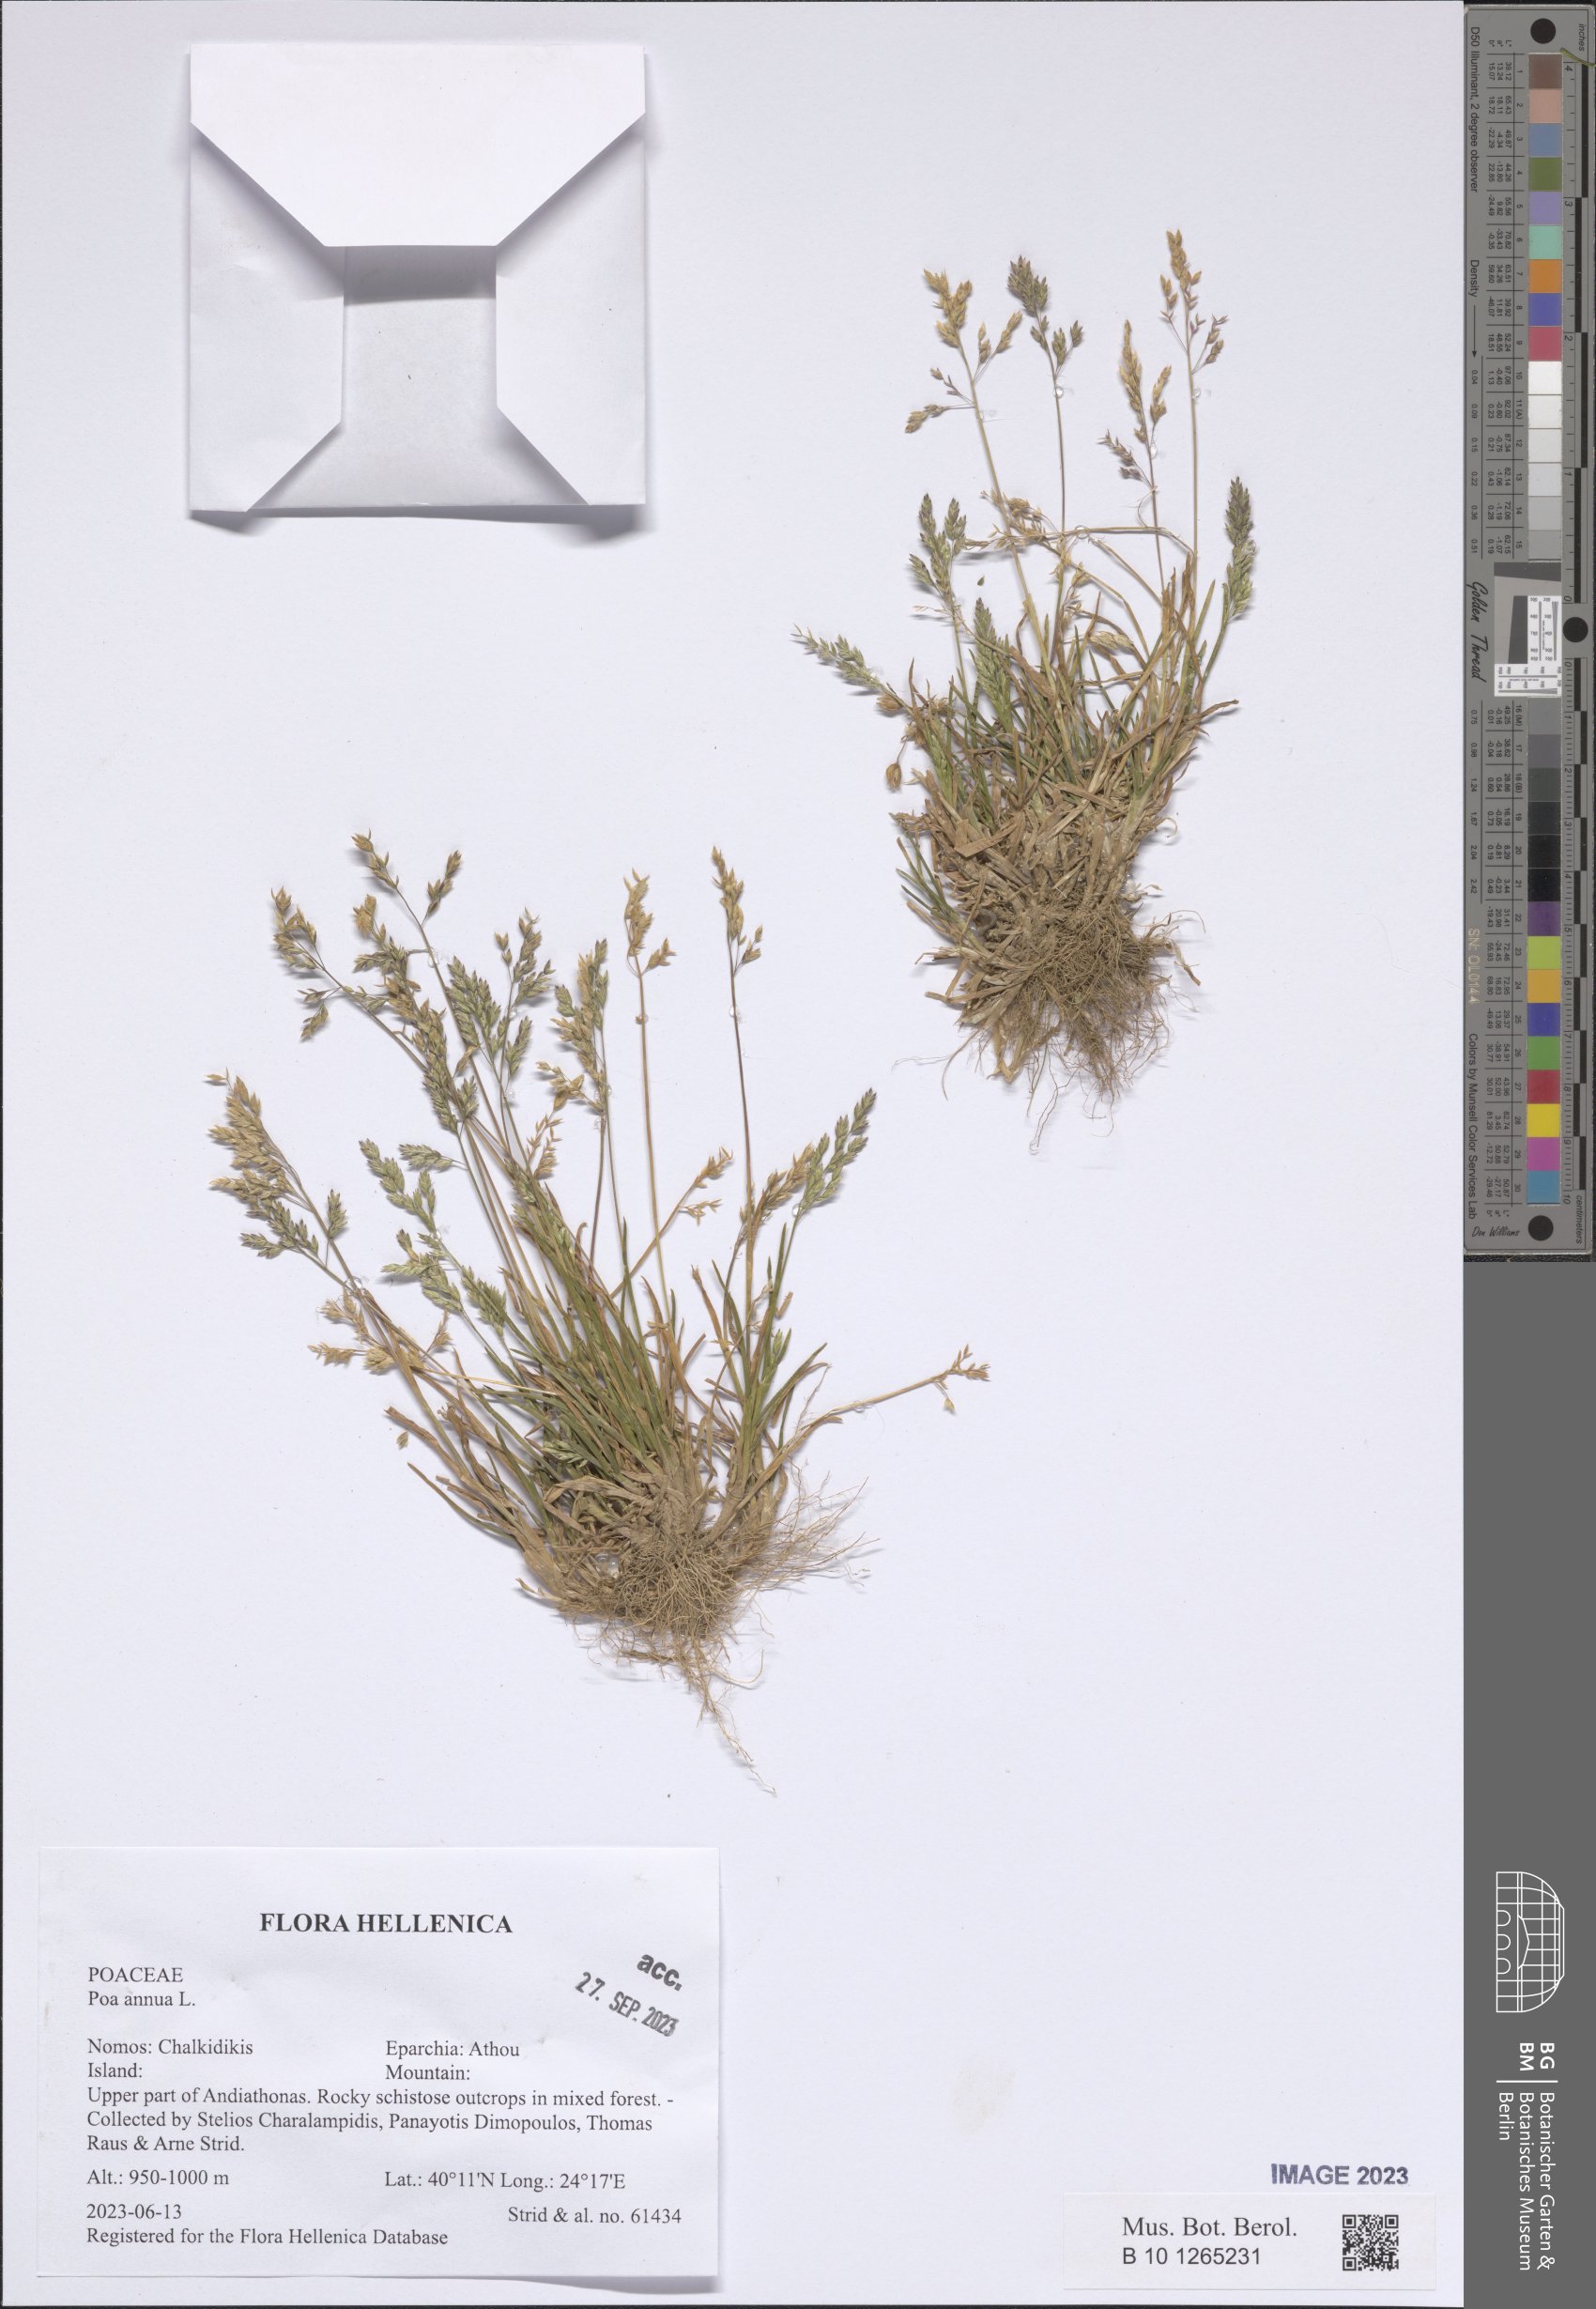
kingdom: Plantae
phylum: Tracheophyta
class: Liliopsida
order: Poales
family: Poaceae
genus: Poa
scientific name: Poa annua
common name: Annual bluegrass
